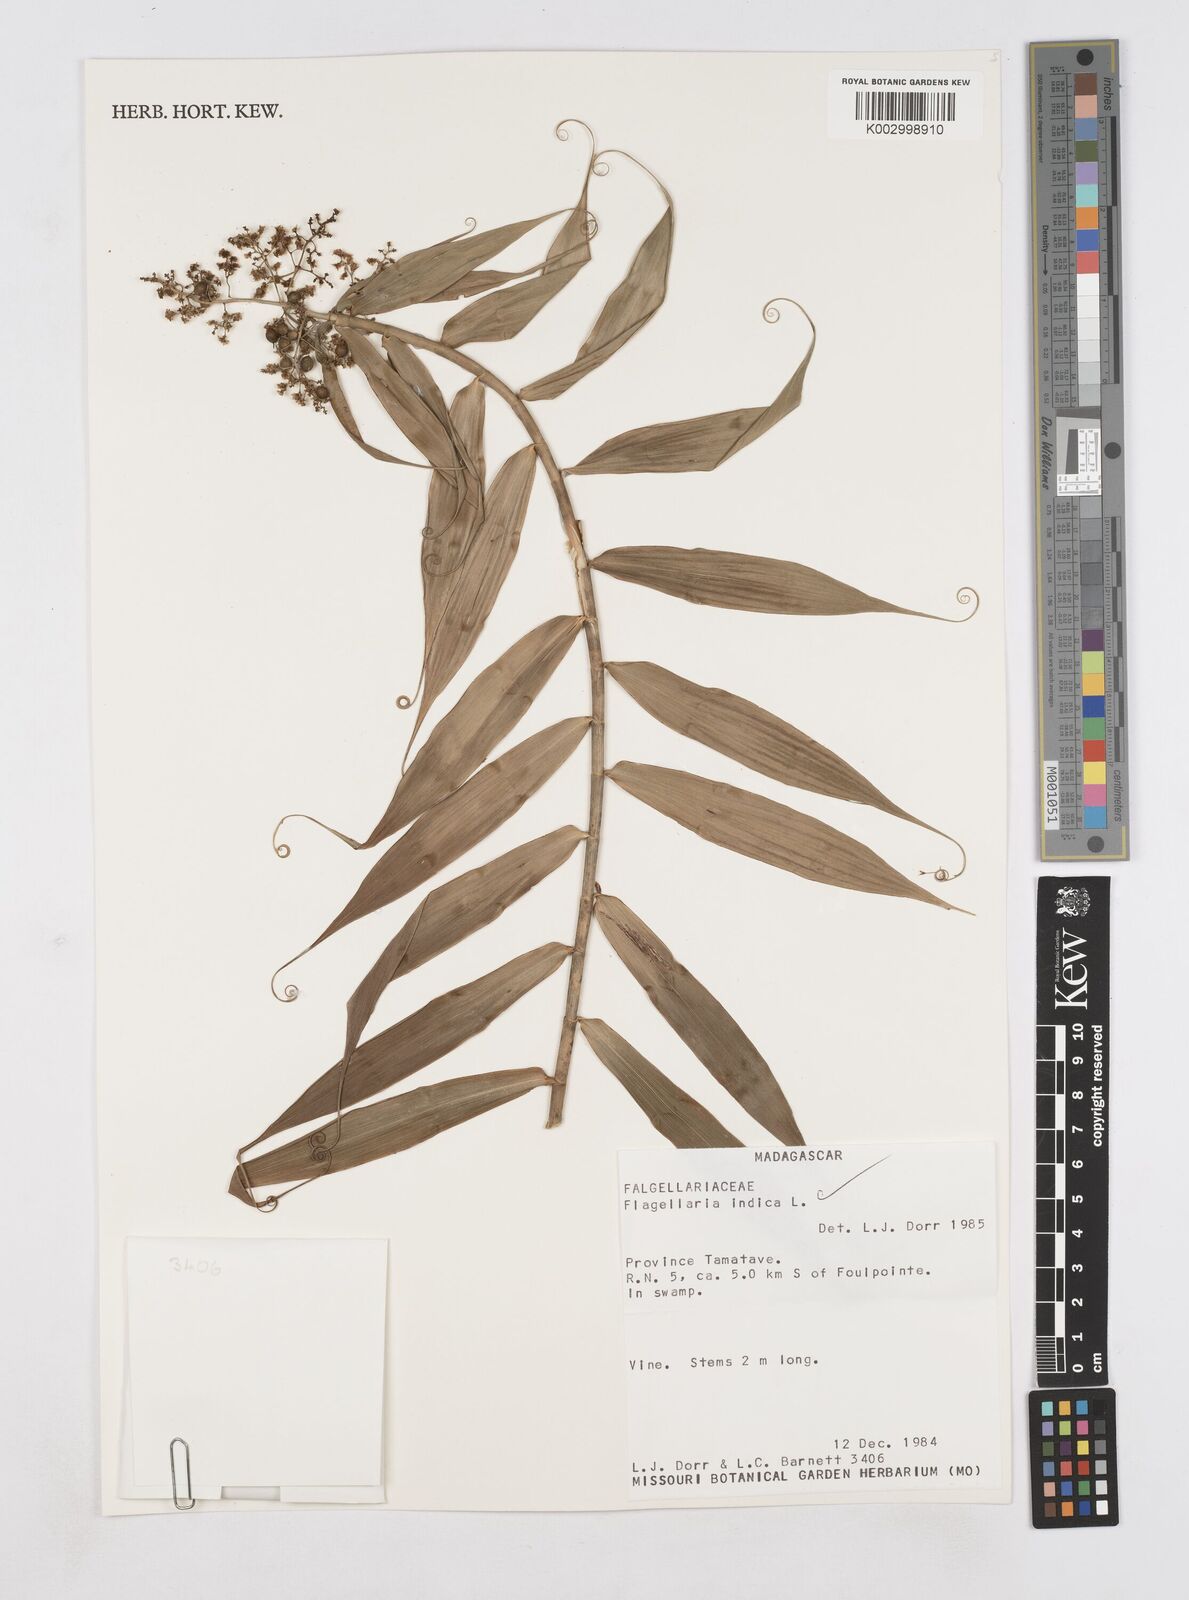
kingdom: Plantae
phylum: Tracheophyta
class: Liliopsida
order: Poales
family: Flagellariaceae
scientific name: Flagellariaceae
